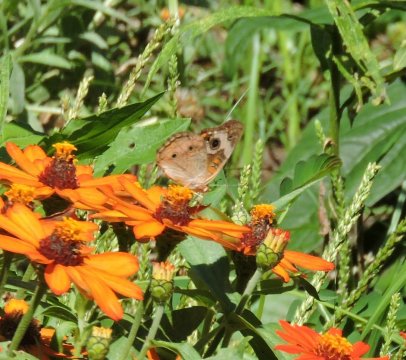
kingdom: Animalia
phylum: Arthropoda
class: Insecta
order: Lepidoptera
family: Nymphalidae
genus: Junonia
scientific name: Junonia coenia
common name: Common Buckeye
